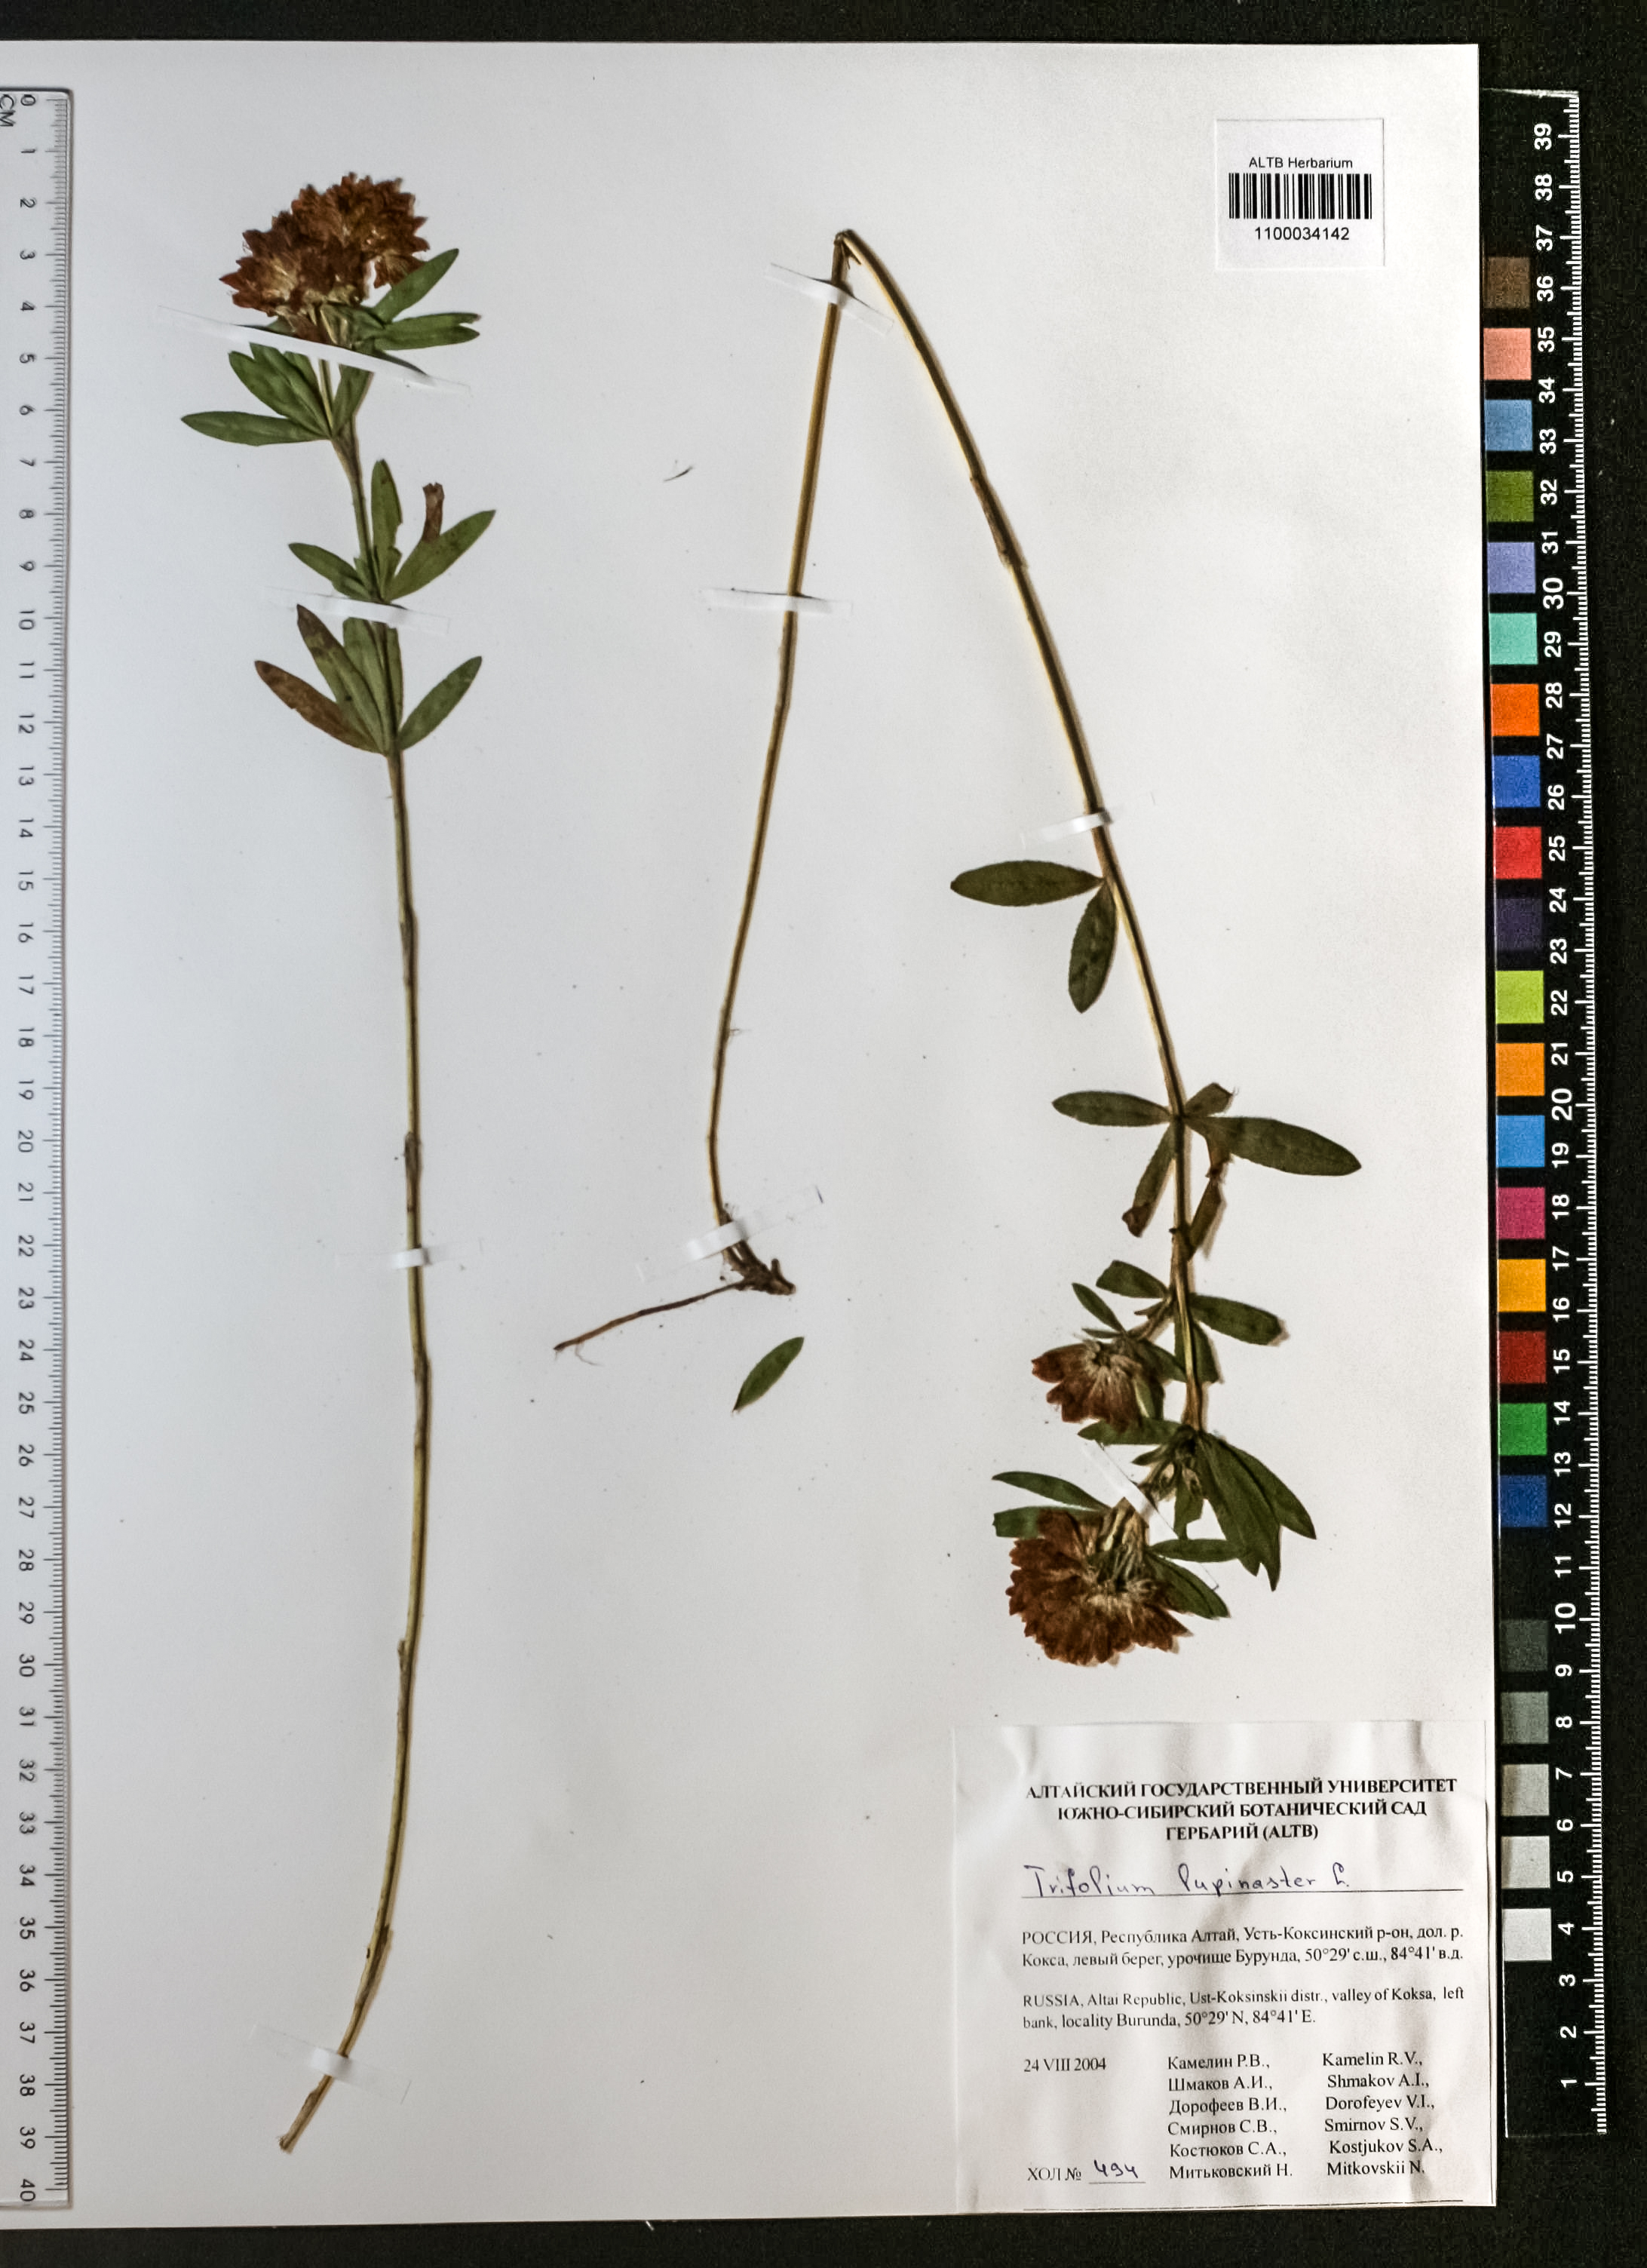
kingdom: Plantae
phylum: Tracheophyta
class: Magnoliopsida
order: Fabales
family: Fabaceae
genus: Trifolium
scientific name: Trifolium lupinaster
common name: Lupine clover
